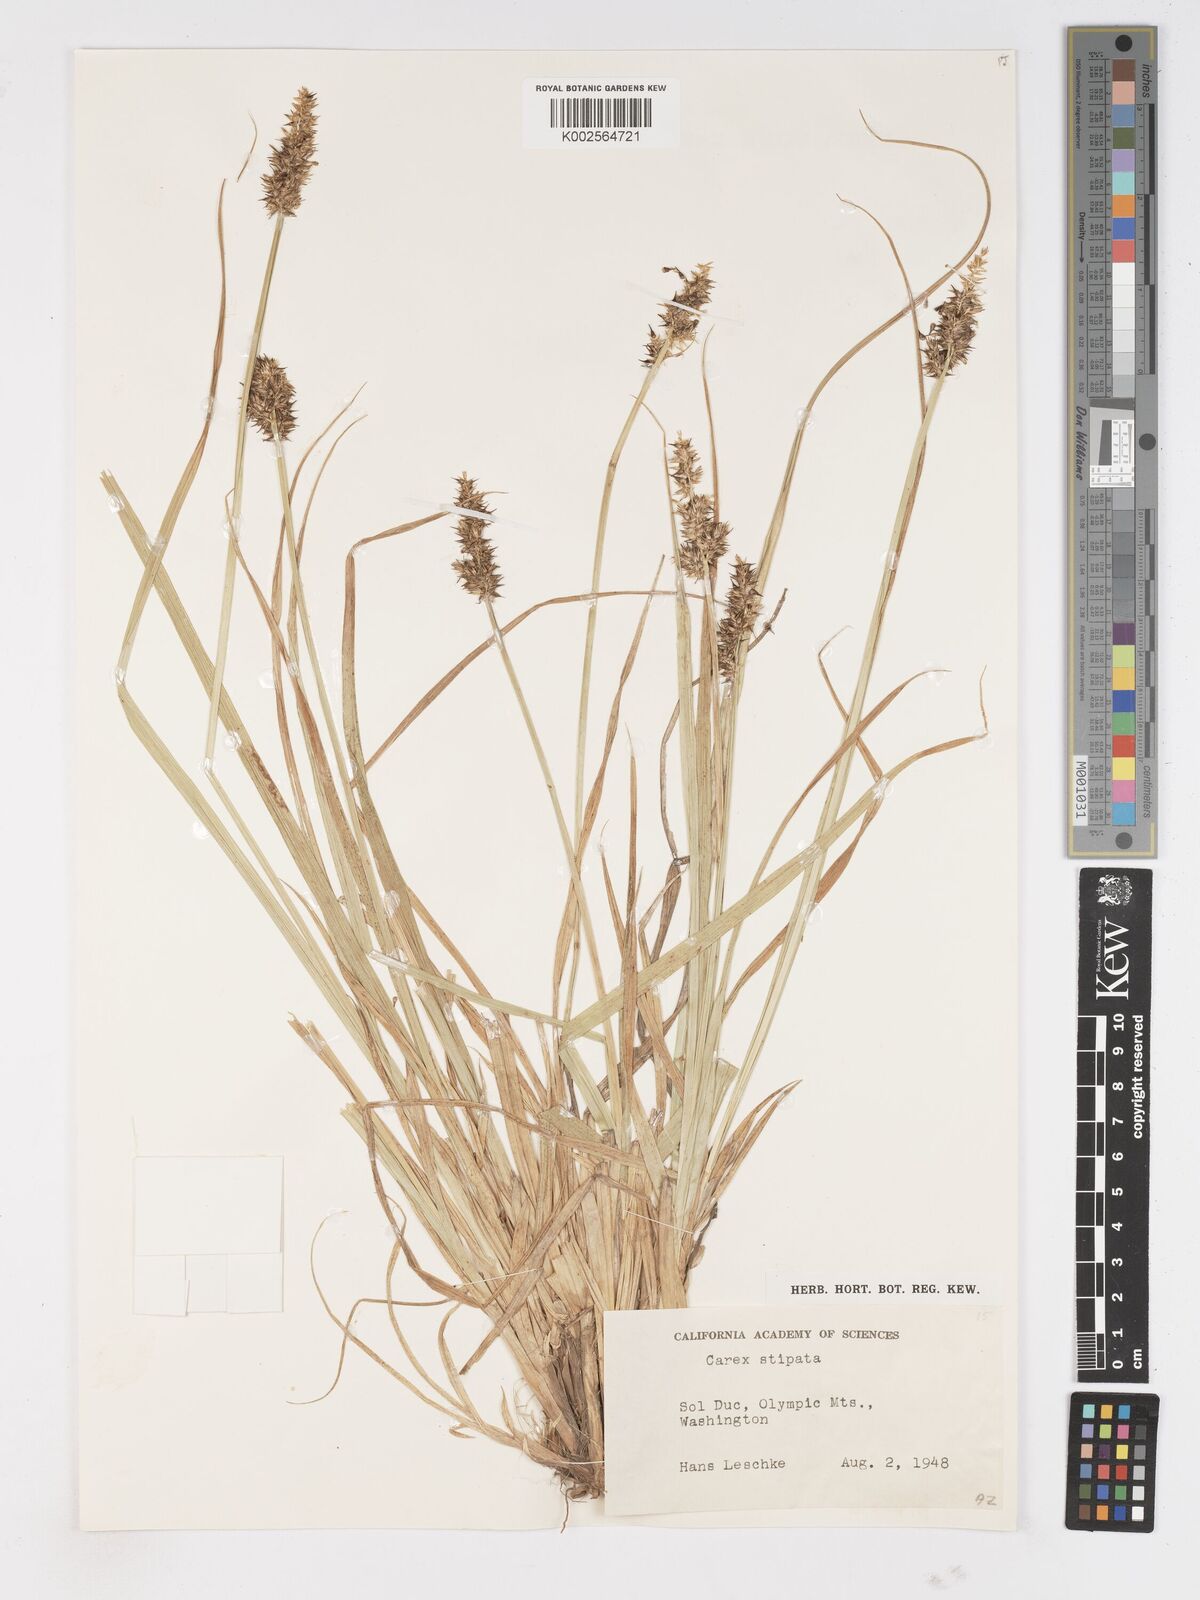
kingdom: Plantae
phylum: Tracheophyta
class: Liliopsida
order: Poales
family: Cyperaceae
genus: Carex
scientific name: Carex varica
